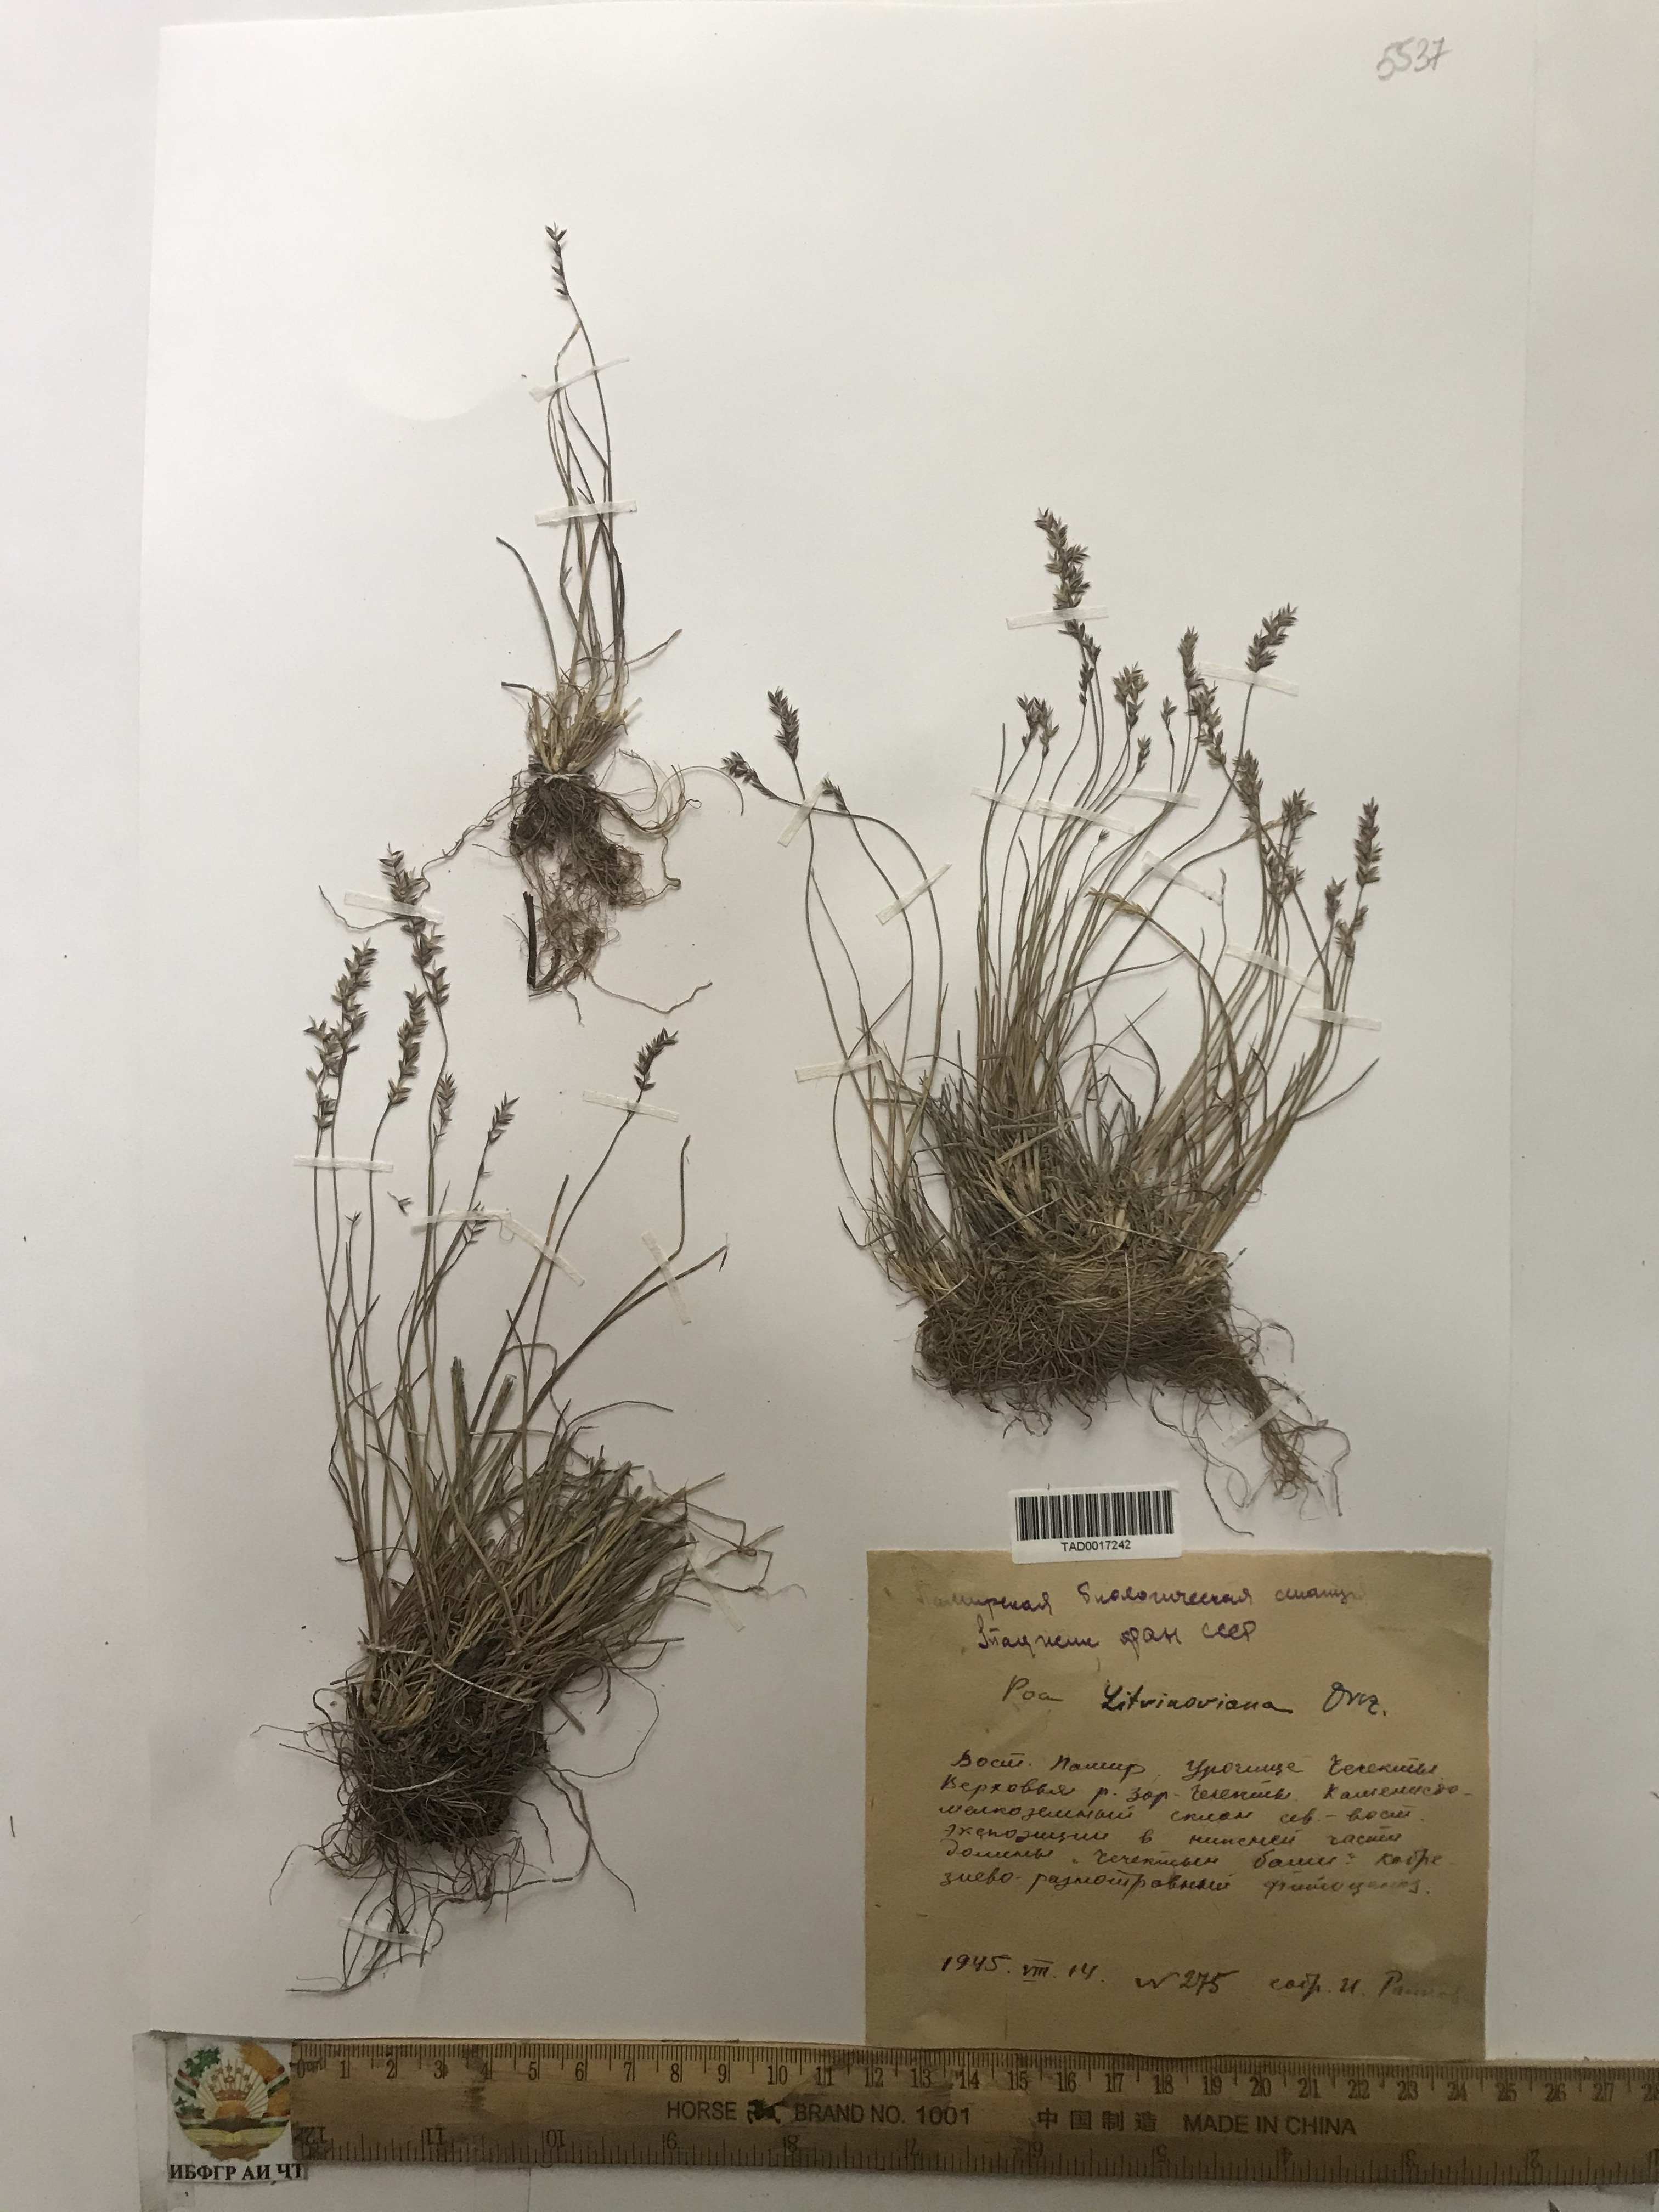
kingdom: Plantae
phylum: Tracheophyta
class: Liliopsida
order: Poales
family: Poaceae
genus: Poa
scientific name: Poa glauca
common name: Glaucous bluegrass
